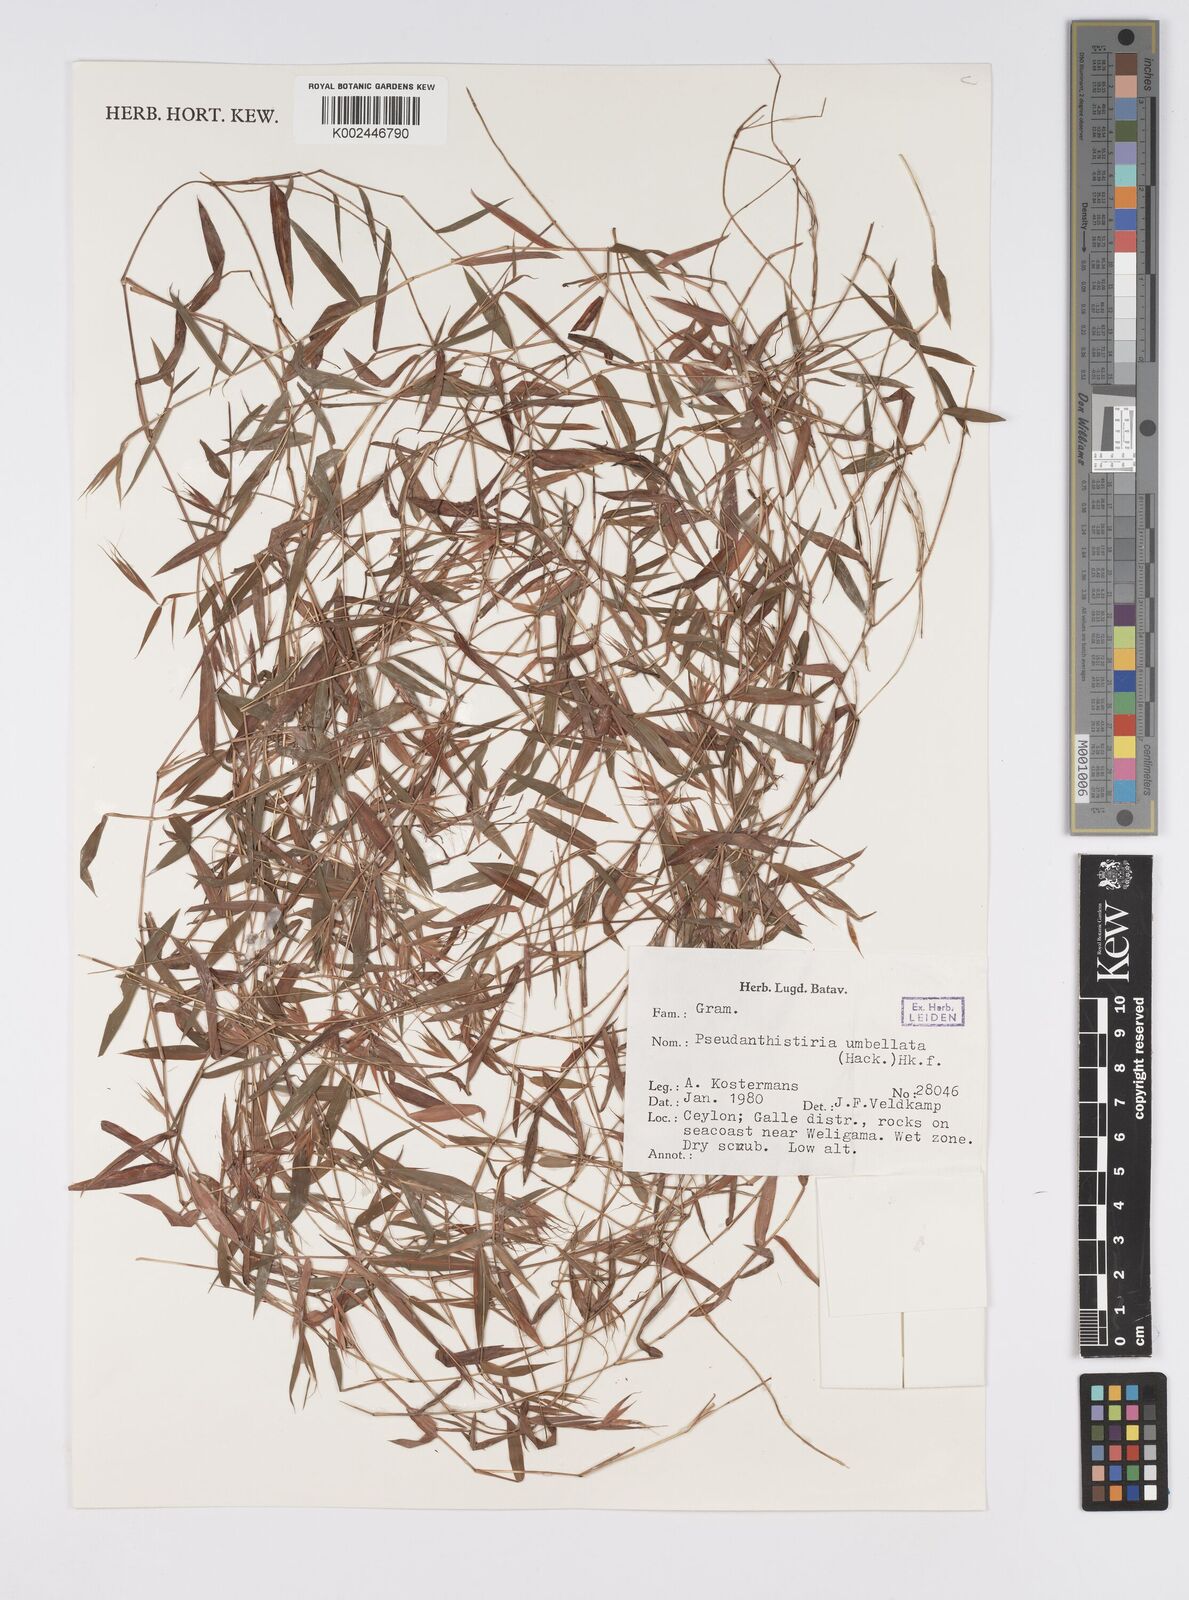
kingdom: Plantae
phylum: Tracheophyta
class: Liliopsida
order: Poales
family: Poaceae
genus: Pseudanthistiria
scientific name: Pseudanthistiria umbellata
